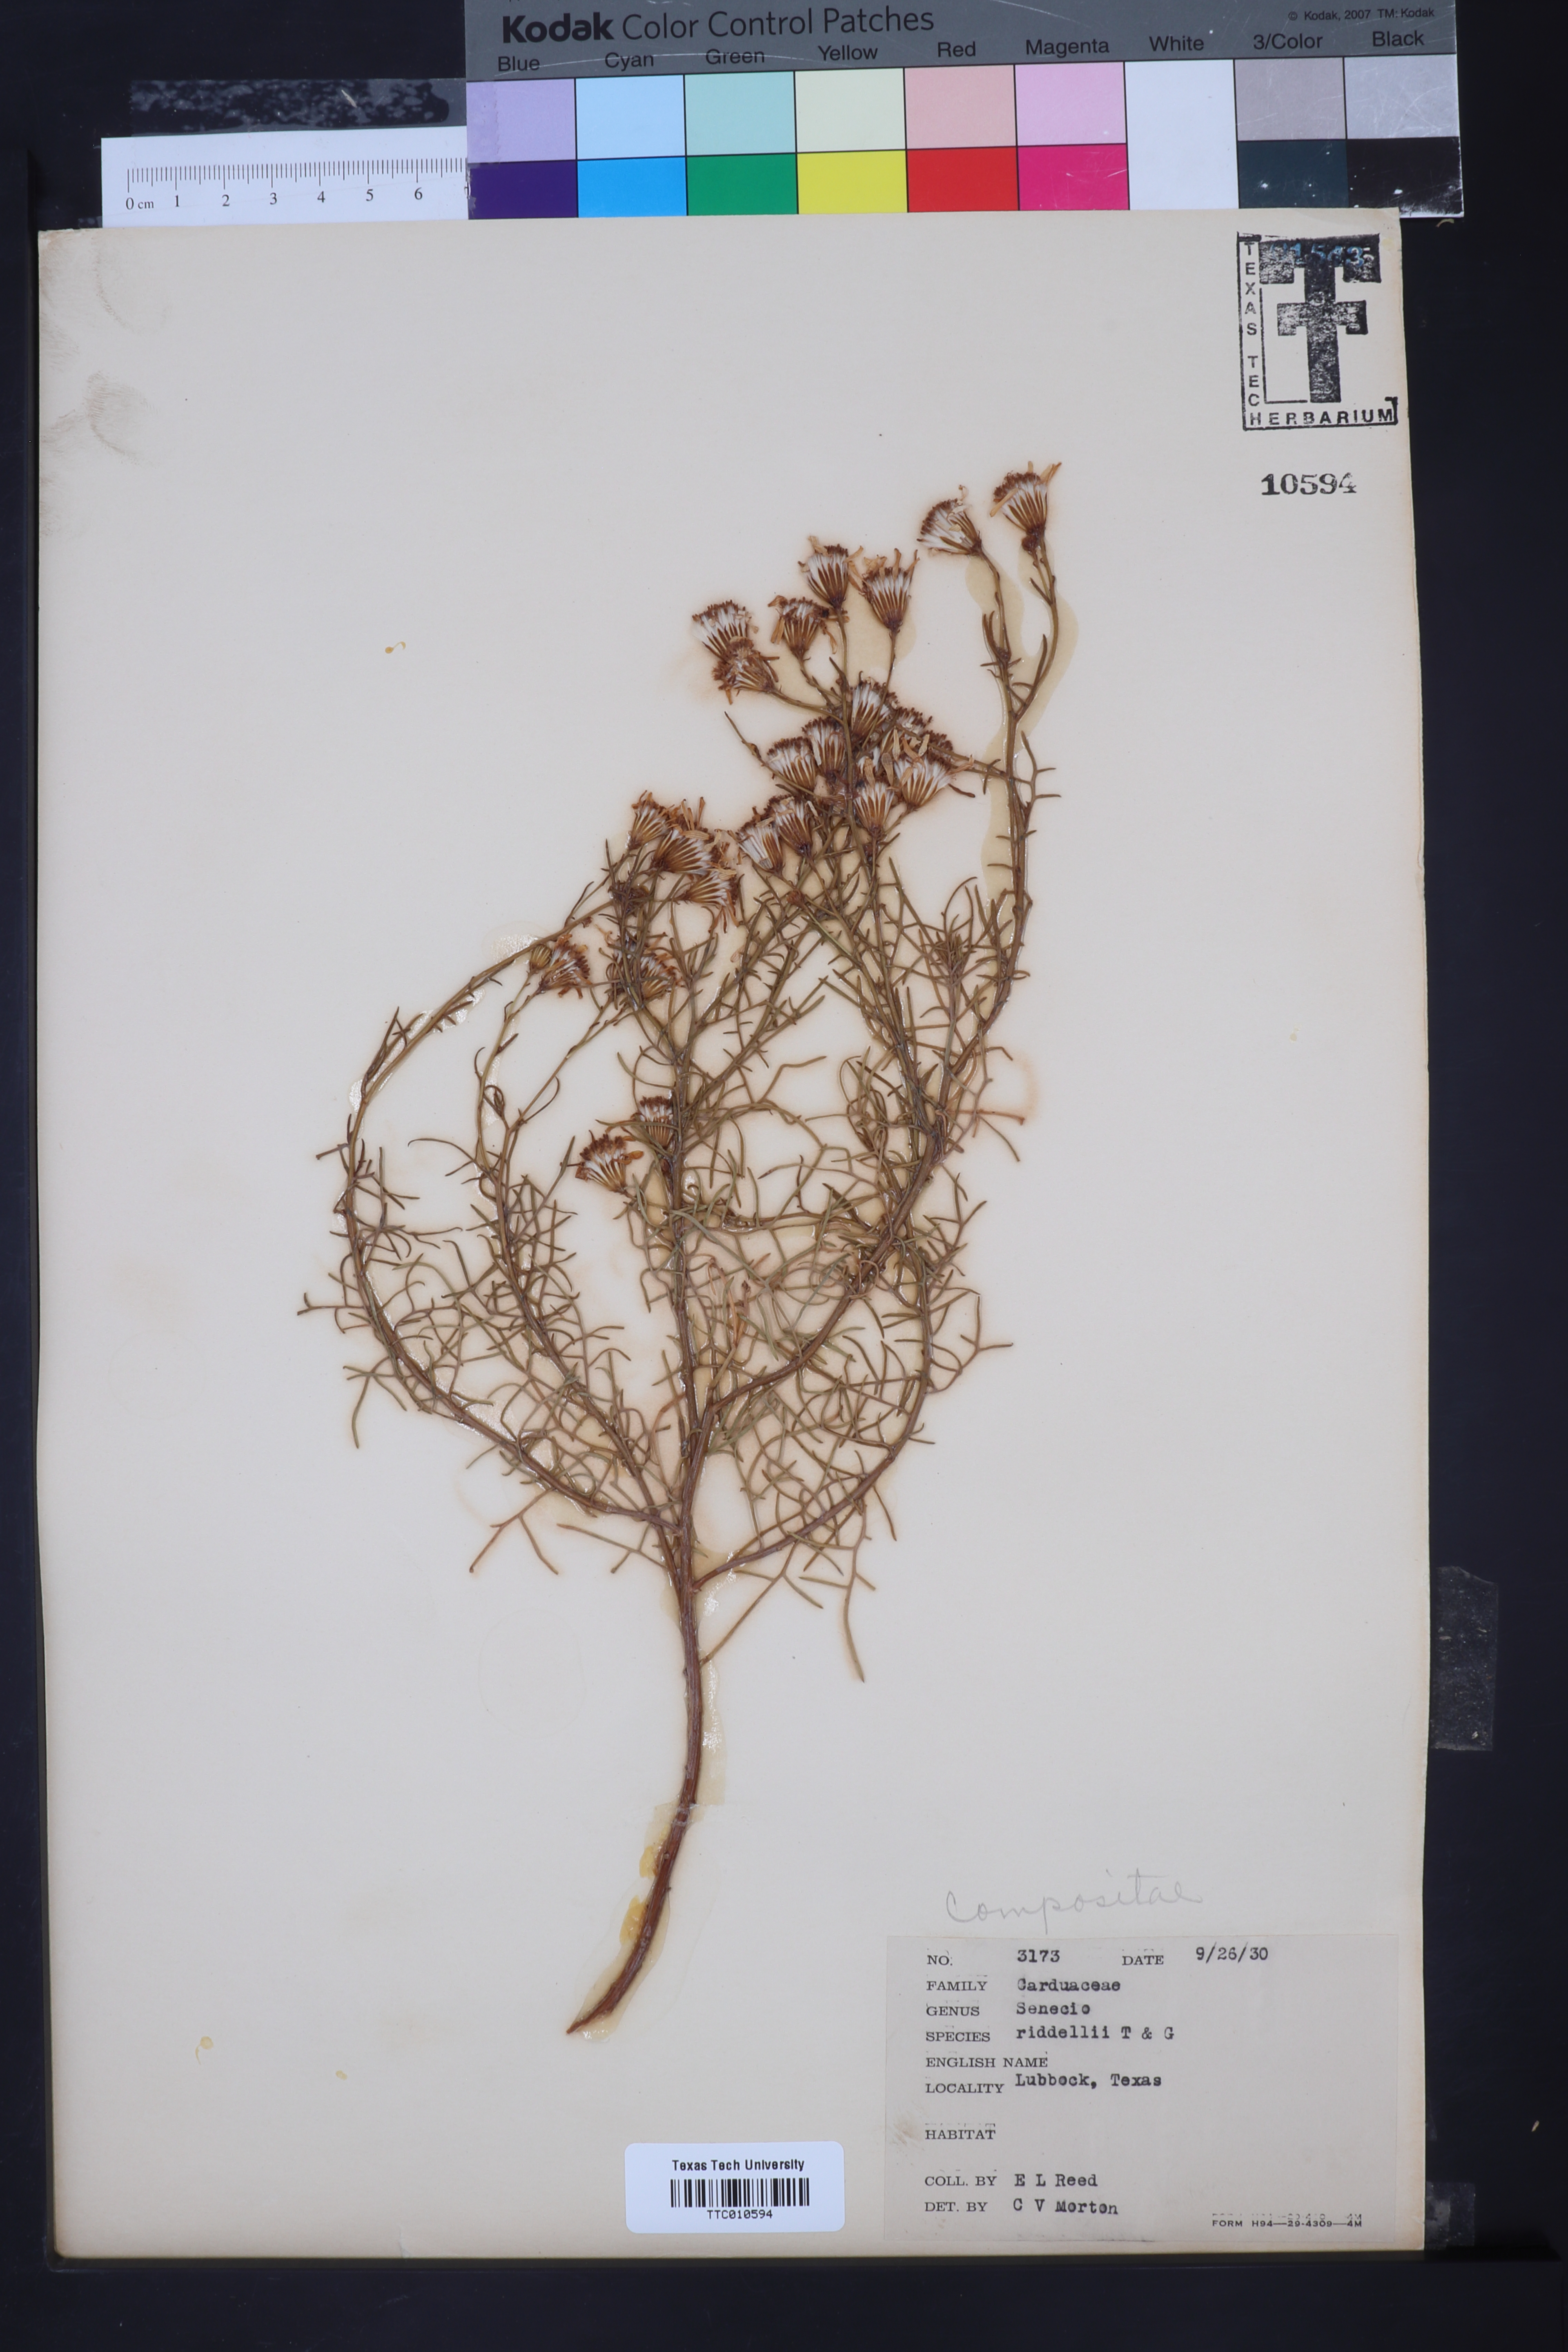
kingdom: Plantae
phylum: Tracheophyta
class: Magnoliopsida
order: Asterales
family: Asteraceae
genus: Senecio
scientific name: Senecio riddellii
